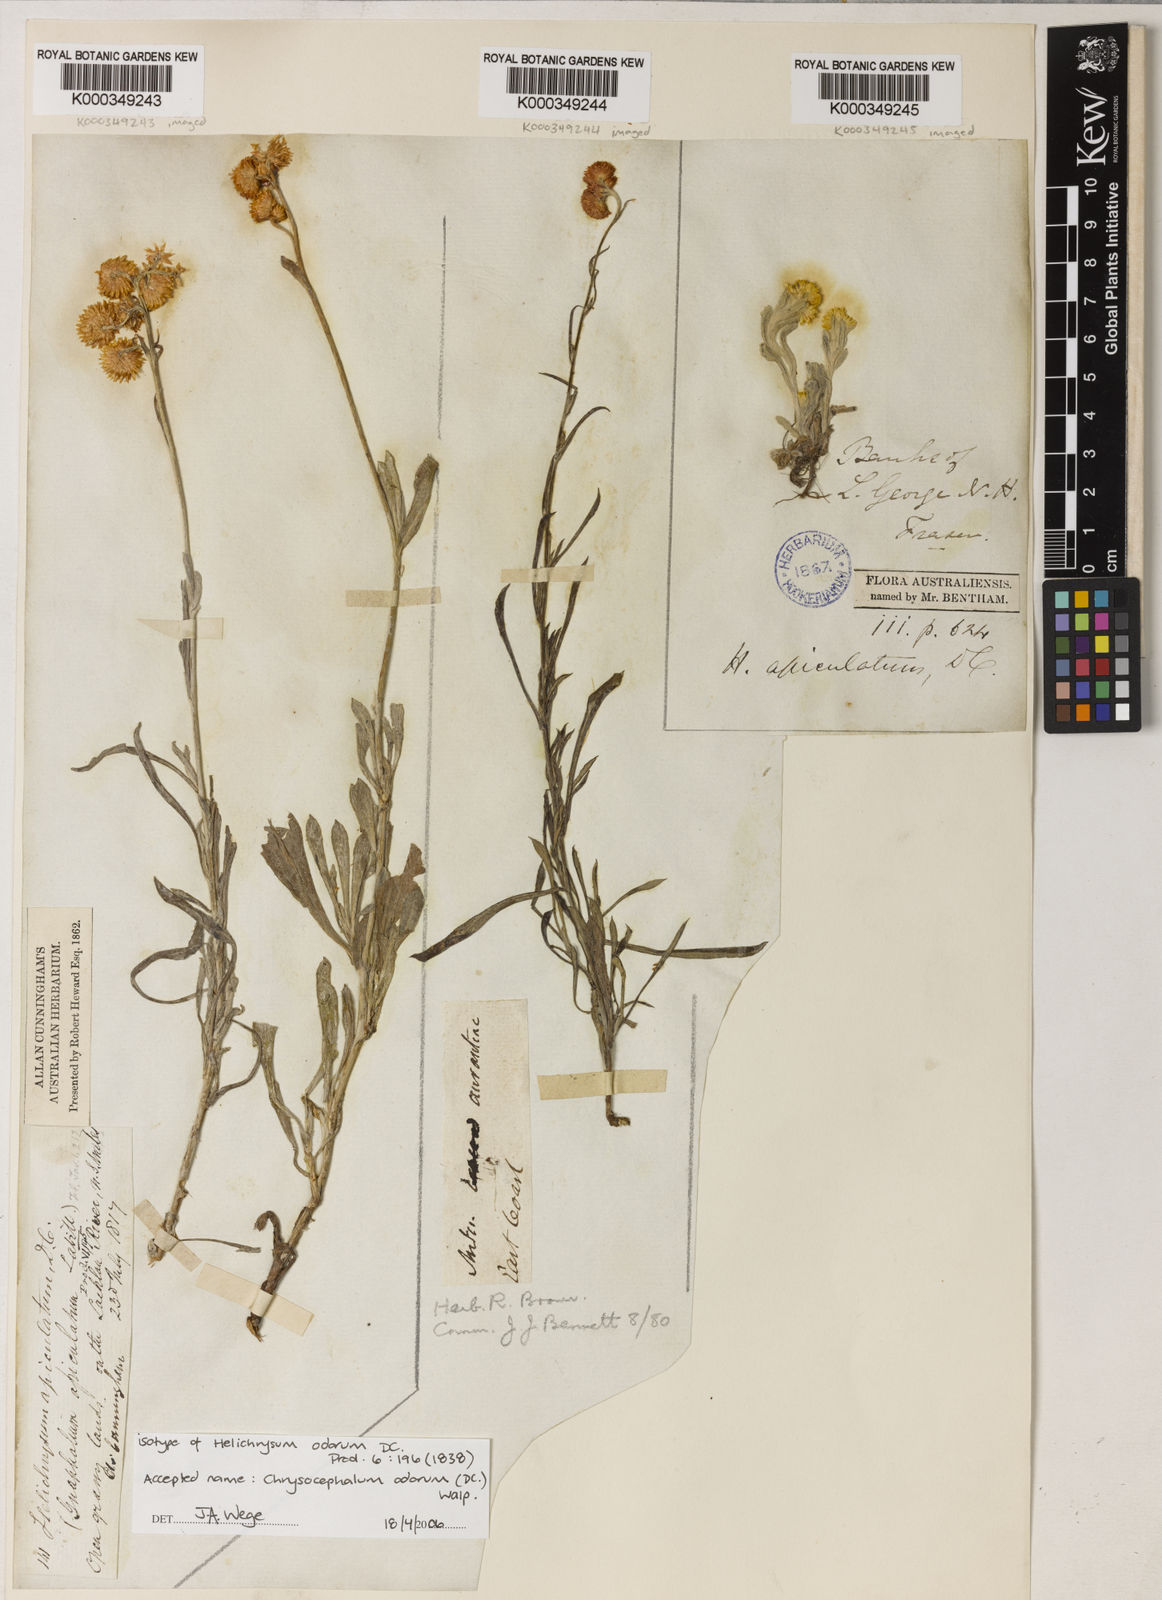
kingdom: Plantae
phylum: Tracheophyta
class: Magnoliopsida
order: Asterales
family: Asteraceae
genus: Chrysocephalum
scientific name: Chrysocephalum apiculatum
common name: Common everlasting
